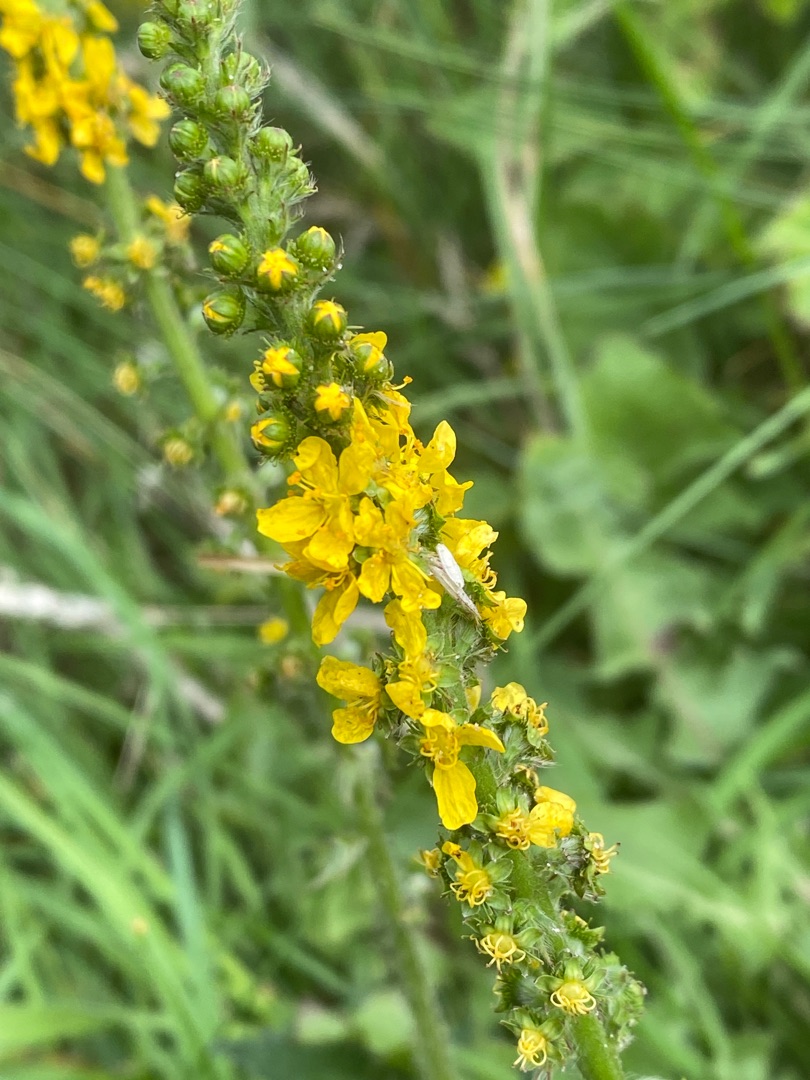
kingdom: Plantae
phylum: Tracheophyta
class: Magnoliopsida
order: Rosales
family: Rosaceae
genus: Agrimonia
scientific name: Agrimonia eupatoria
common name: Almindelig agermåne
